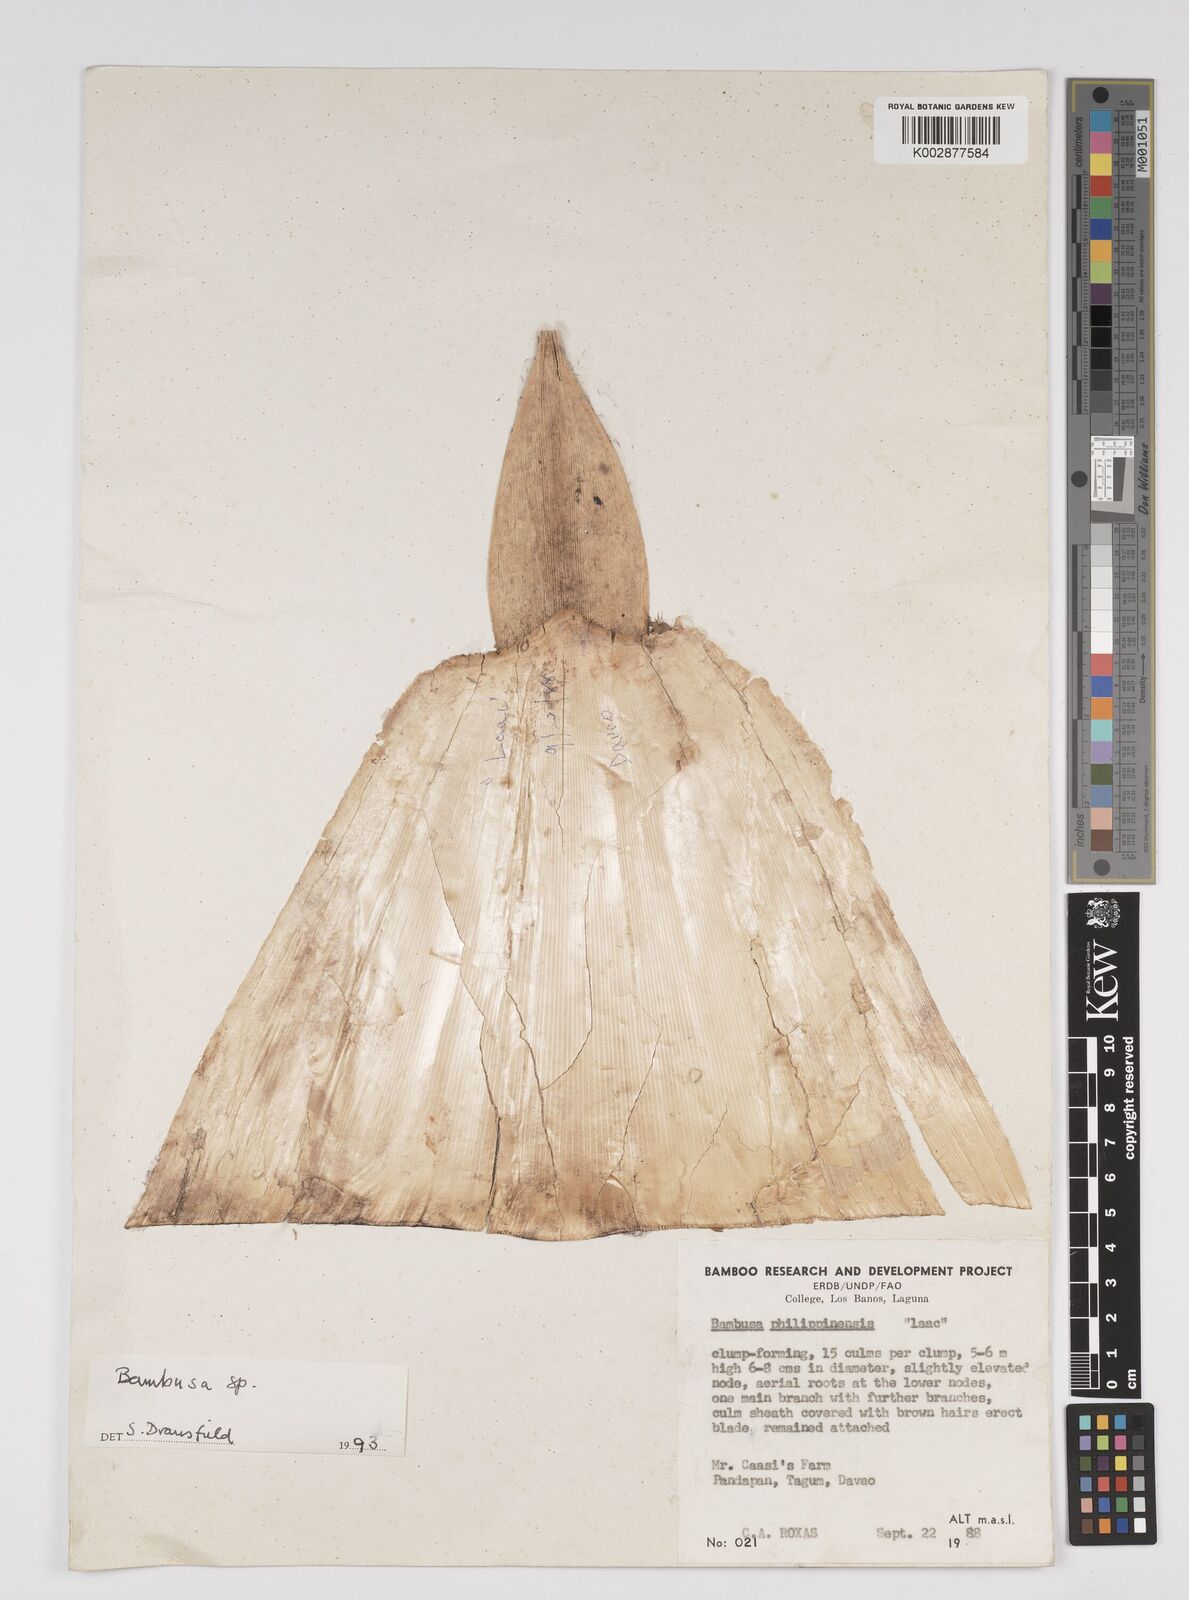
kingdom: Plantae
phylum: Tracheophyta
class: Liliopsida
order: Poales
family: Poaceae
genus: Bambusa
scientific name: Bambusa
